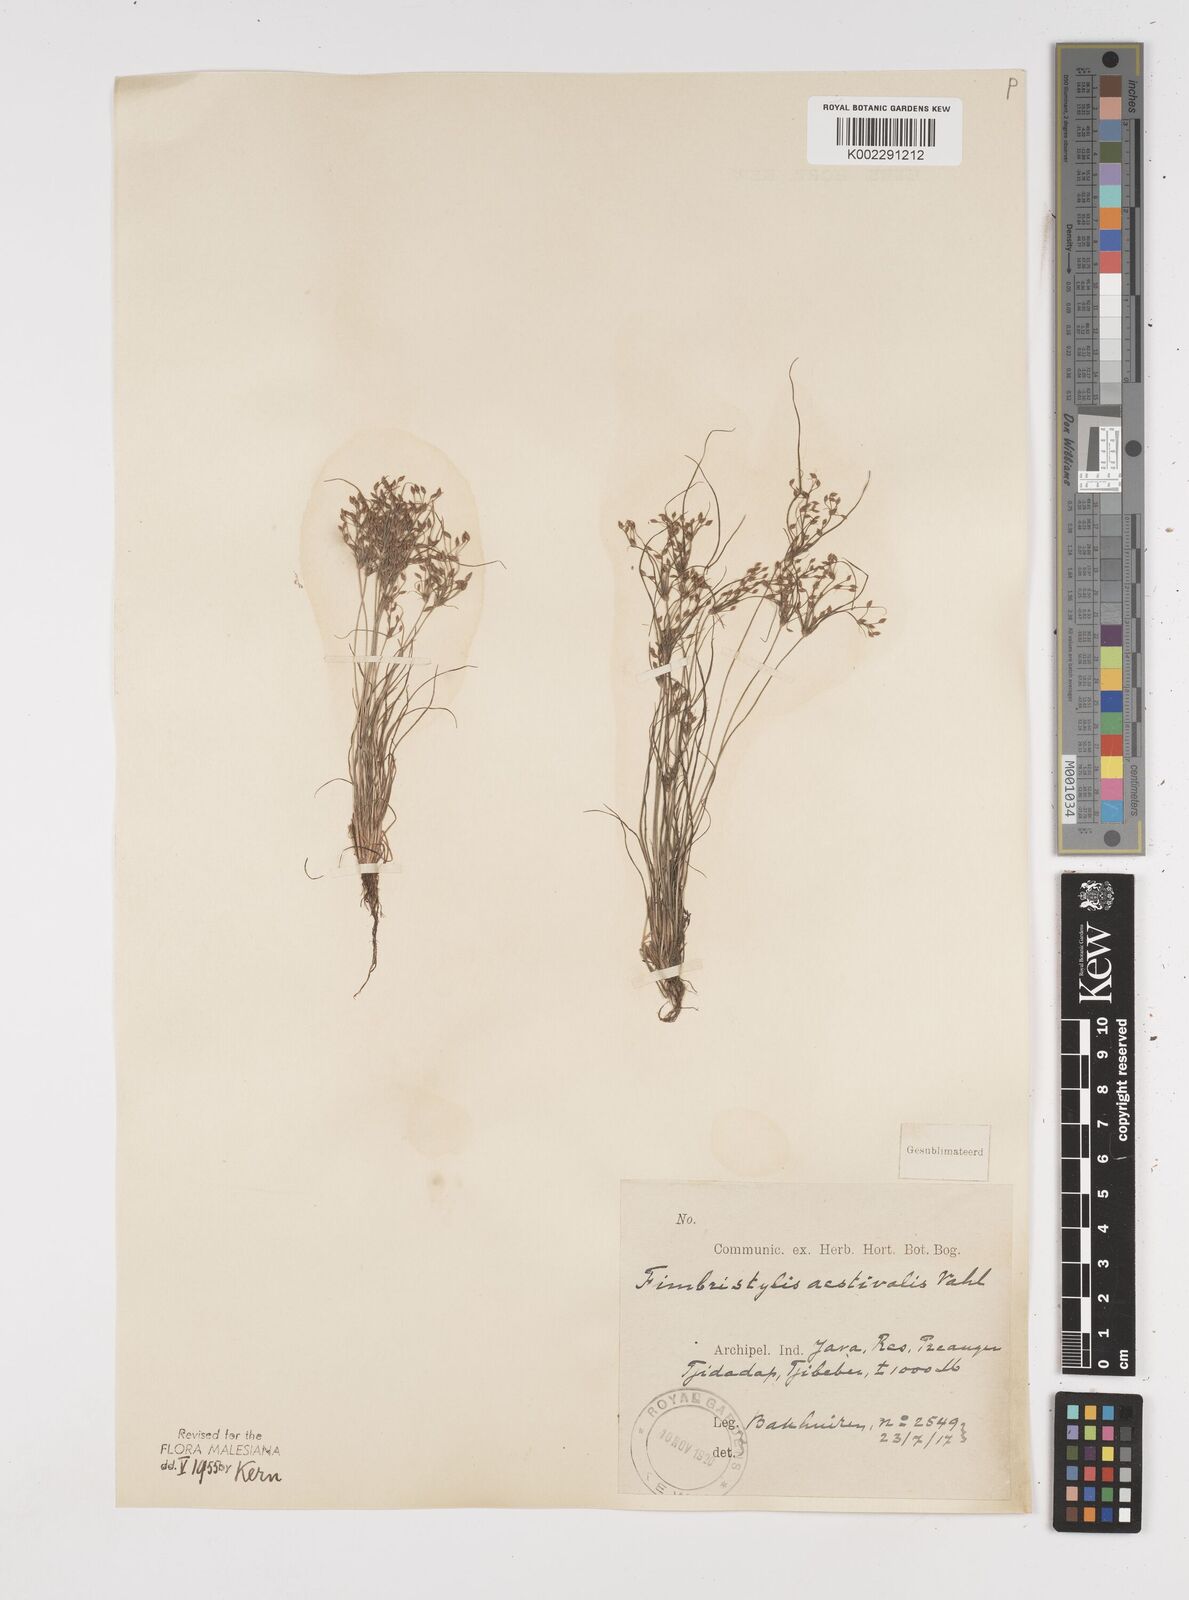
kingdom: Plantae
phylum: Tracheophyta
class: Liliopsida
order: Poales
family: Cyperaceae
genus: Fimbristylis
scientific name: Fimbristylis aestivalis
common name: Summer fimbry
